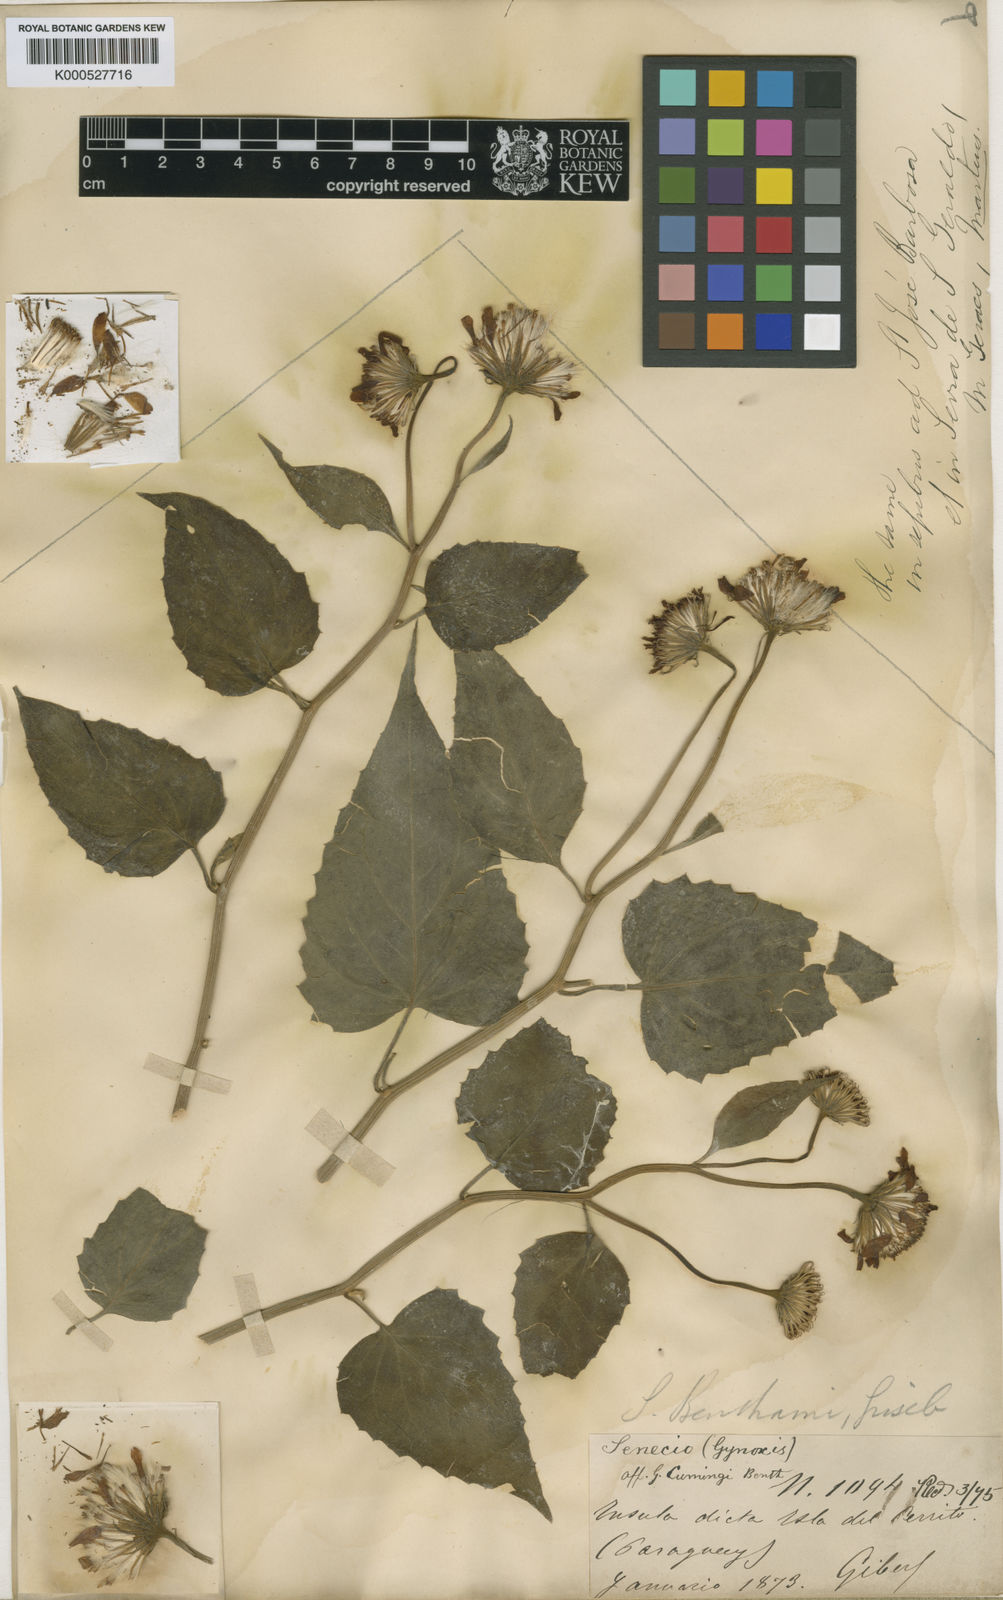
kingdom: Plantae
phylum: Tracheophyta
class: Magnoliopsida
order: Asterales
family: Asteraceae
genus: Pseudogynoxys
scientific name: Pseudogynoxys cabrerae
